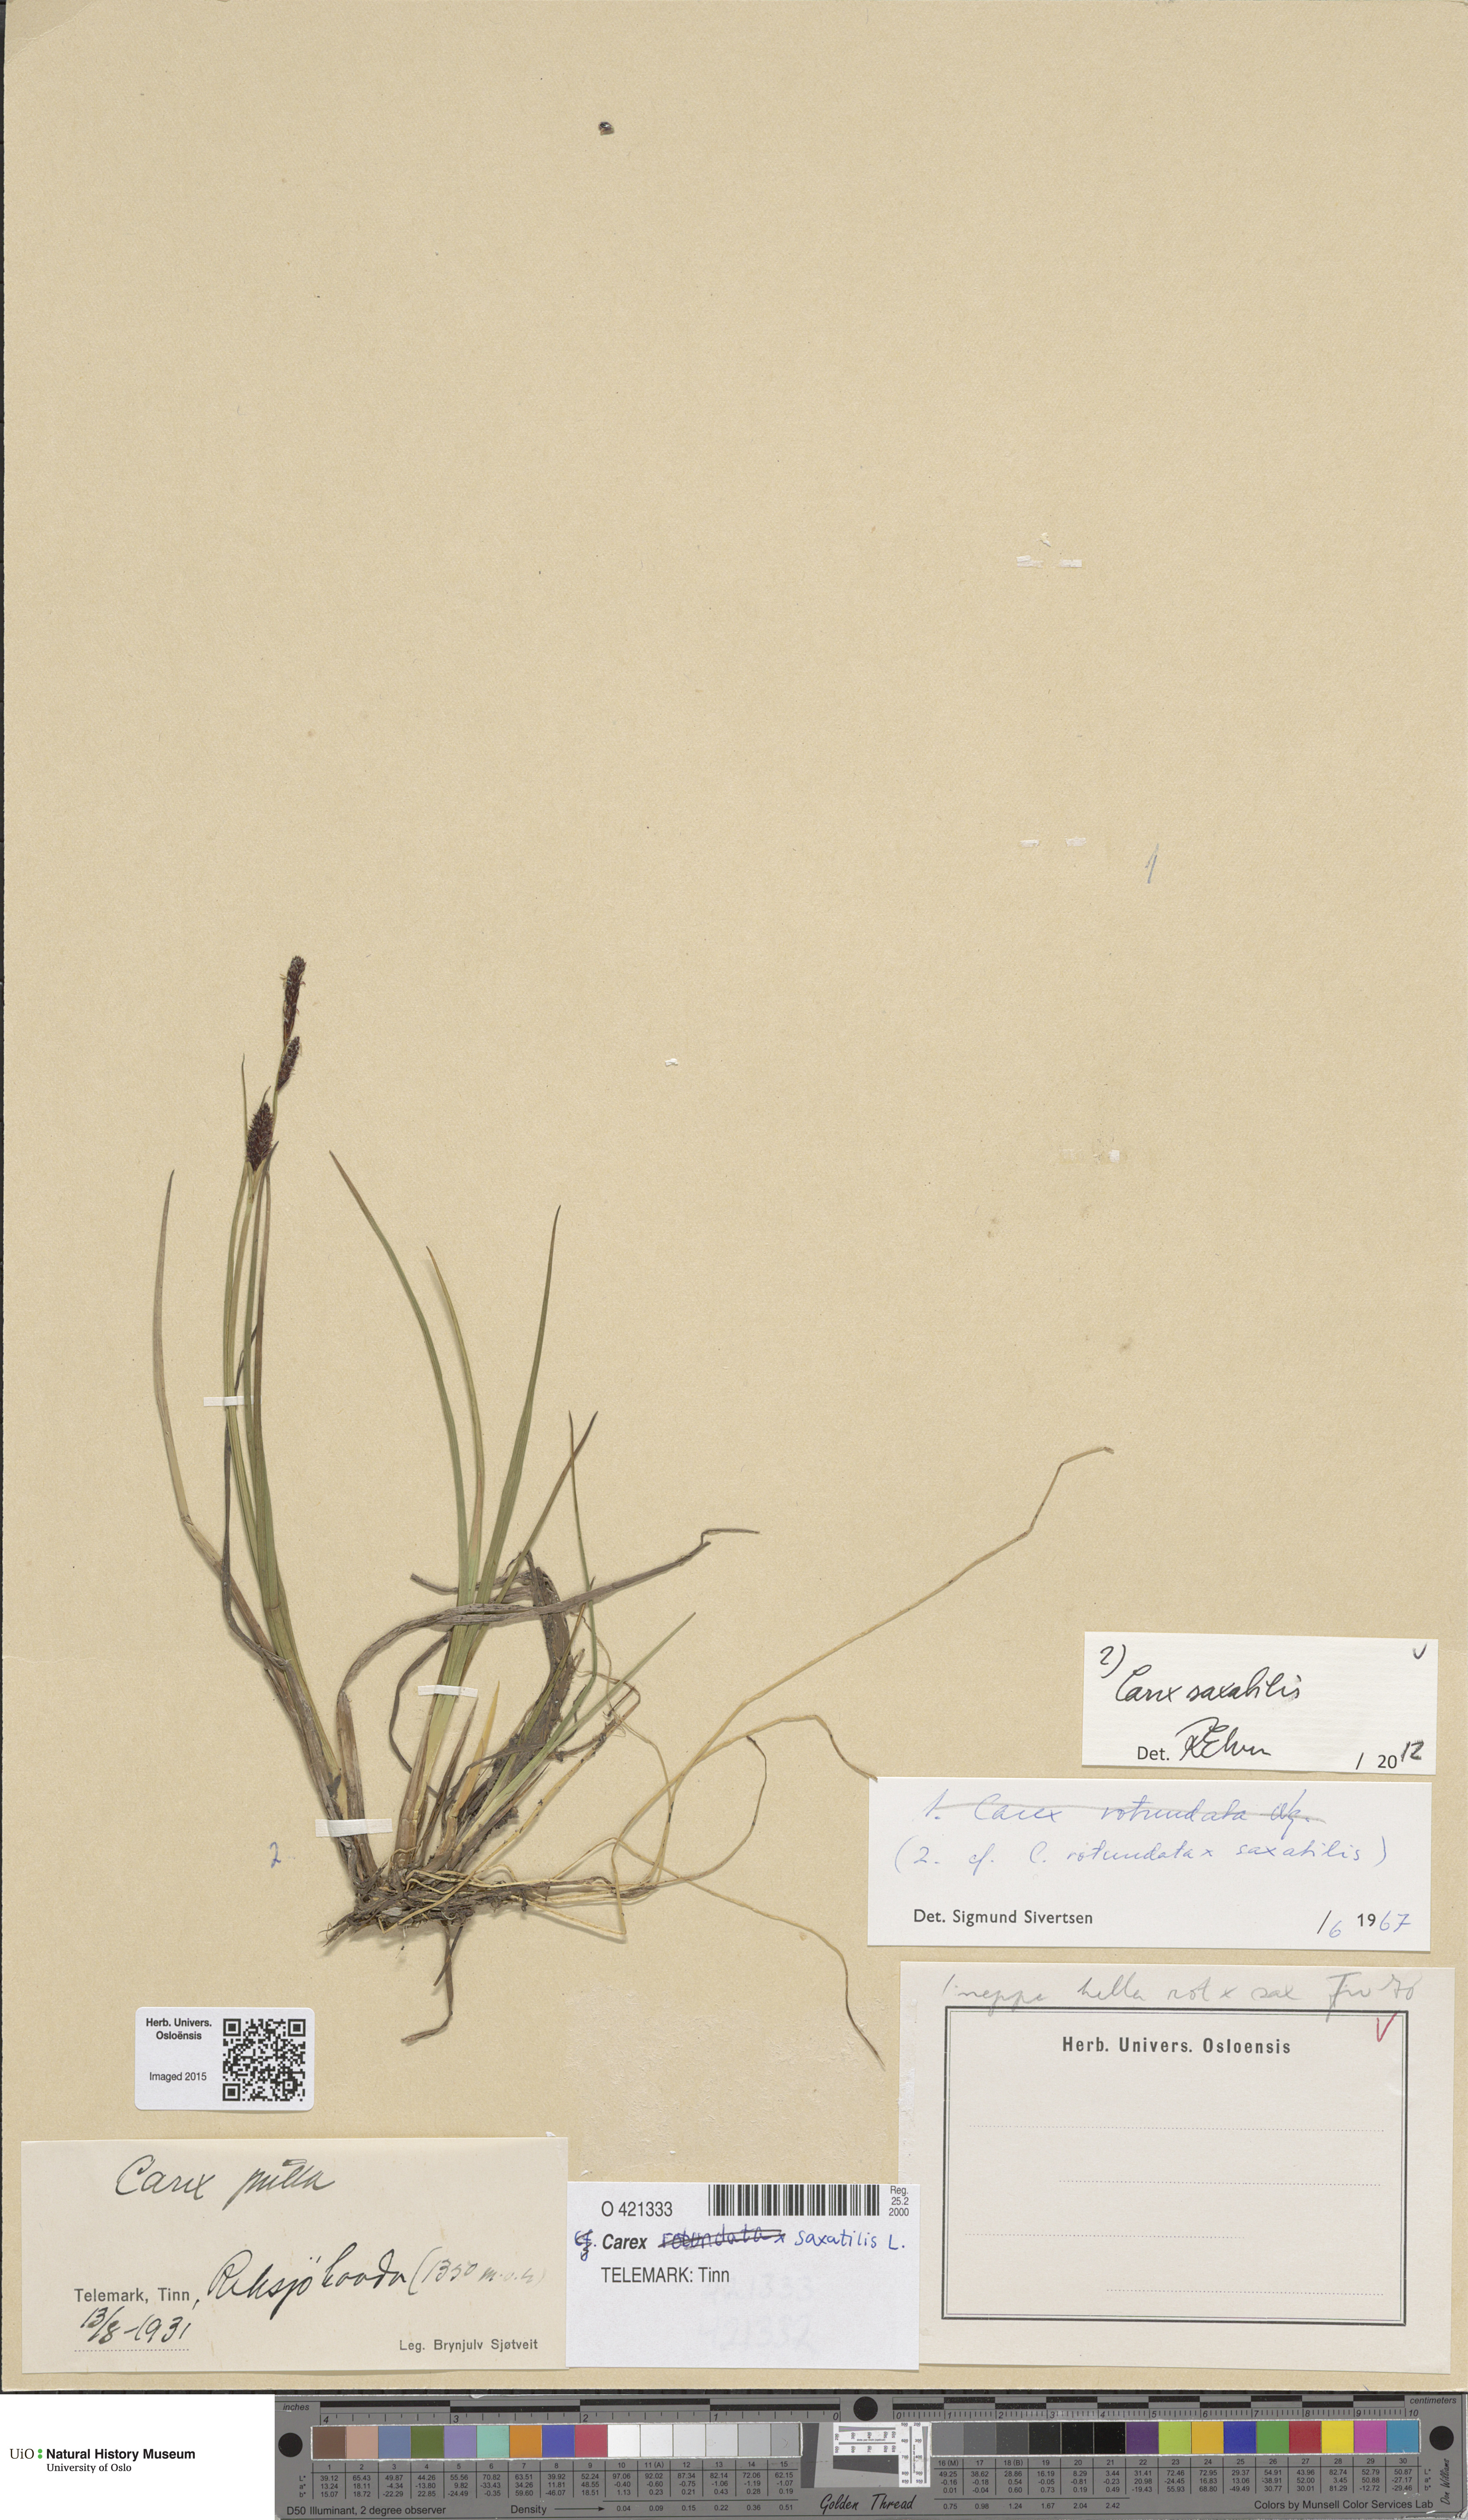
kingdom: Plantae
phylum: Tracheophyta
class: Liliopsida
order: Poales
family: Cyperaceae
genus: Carex
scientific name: Carex saxatilis
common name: Russet sedge
